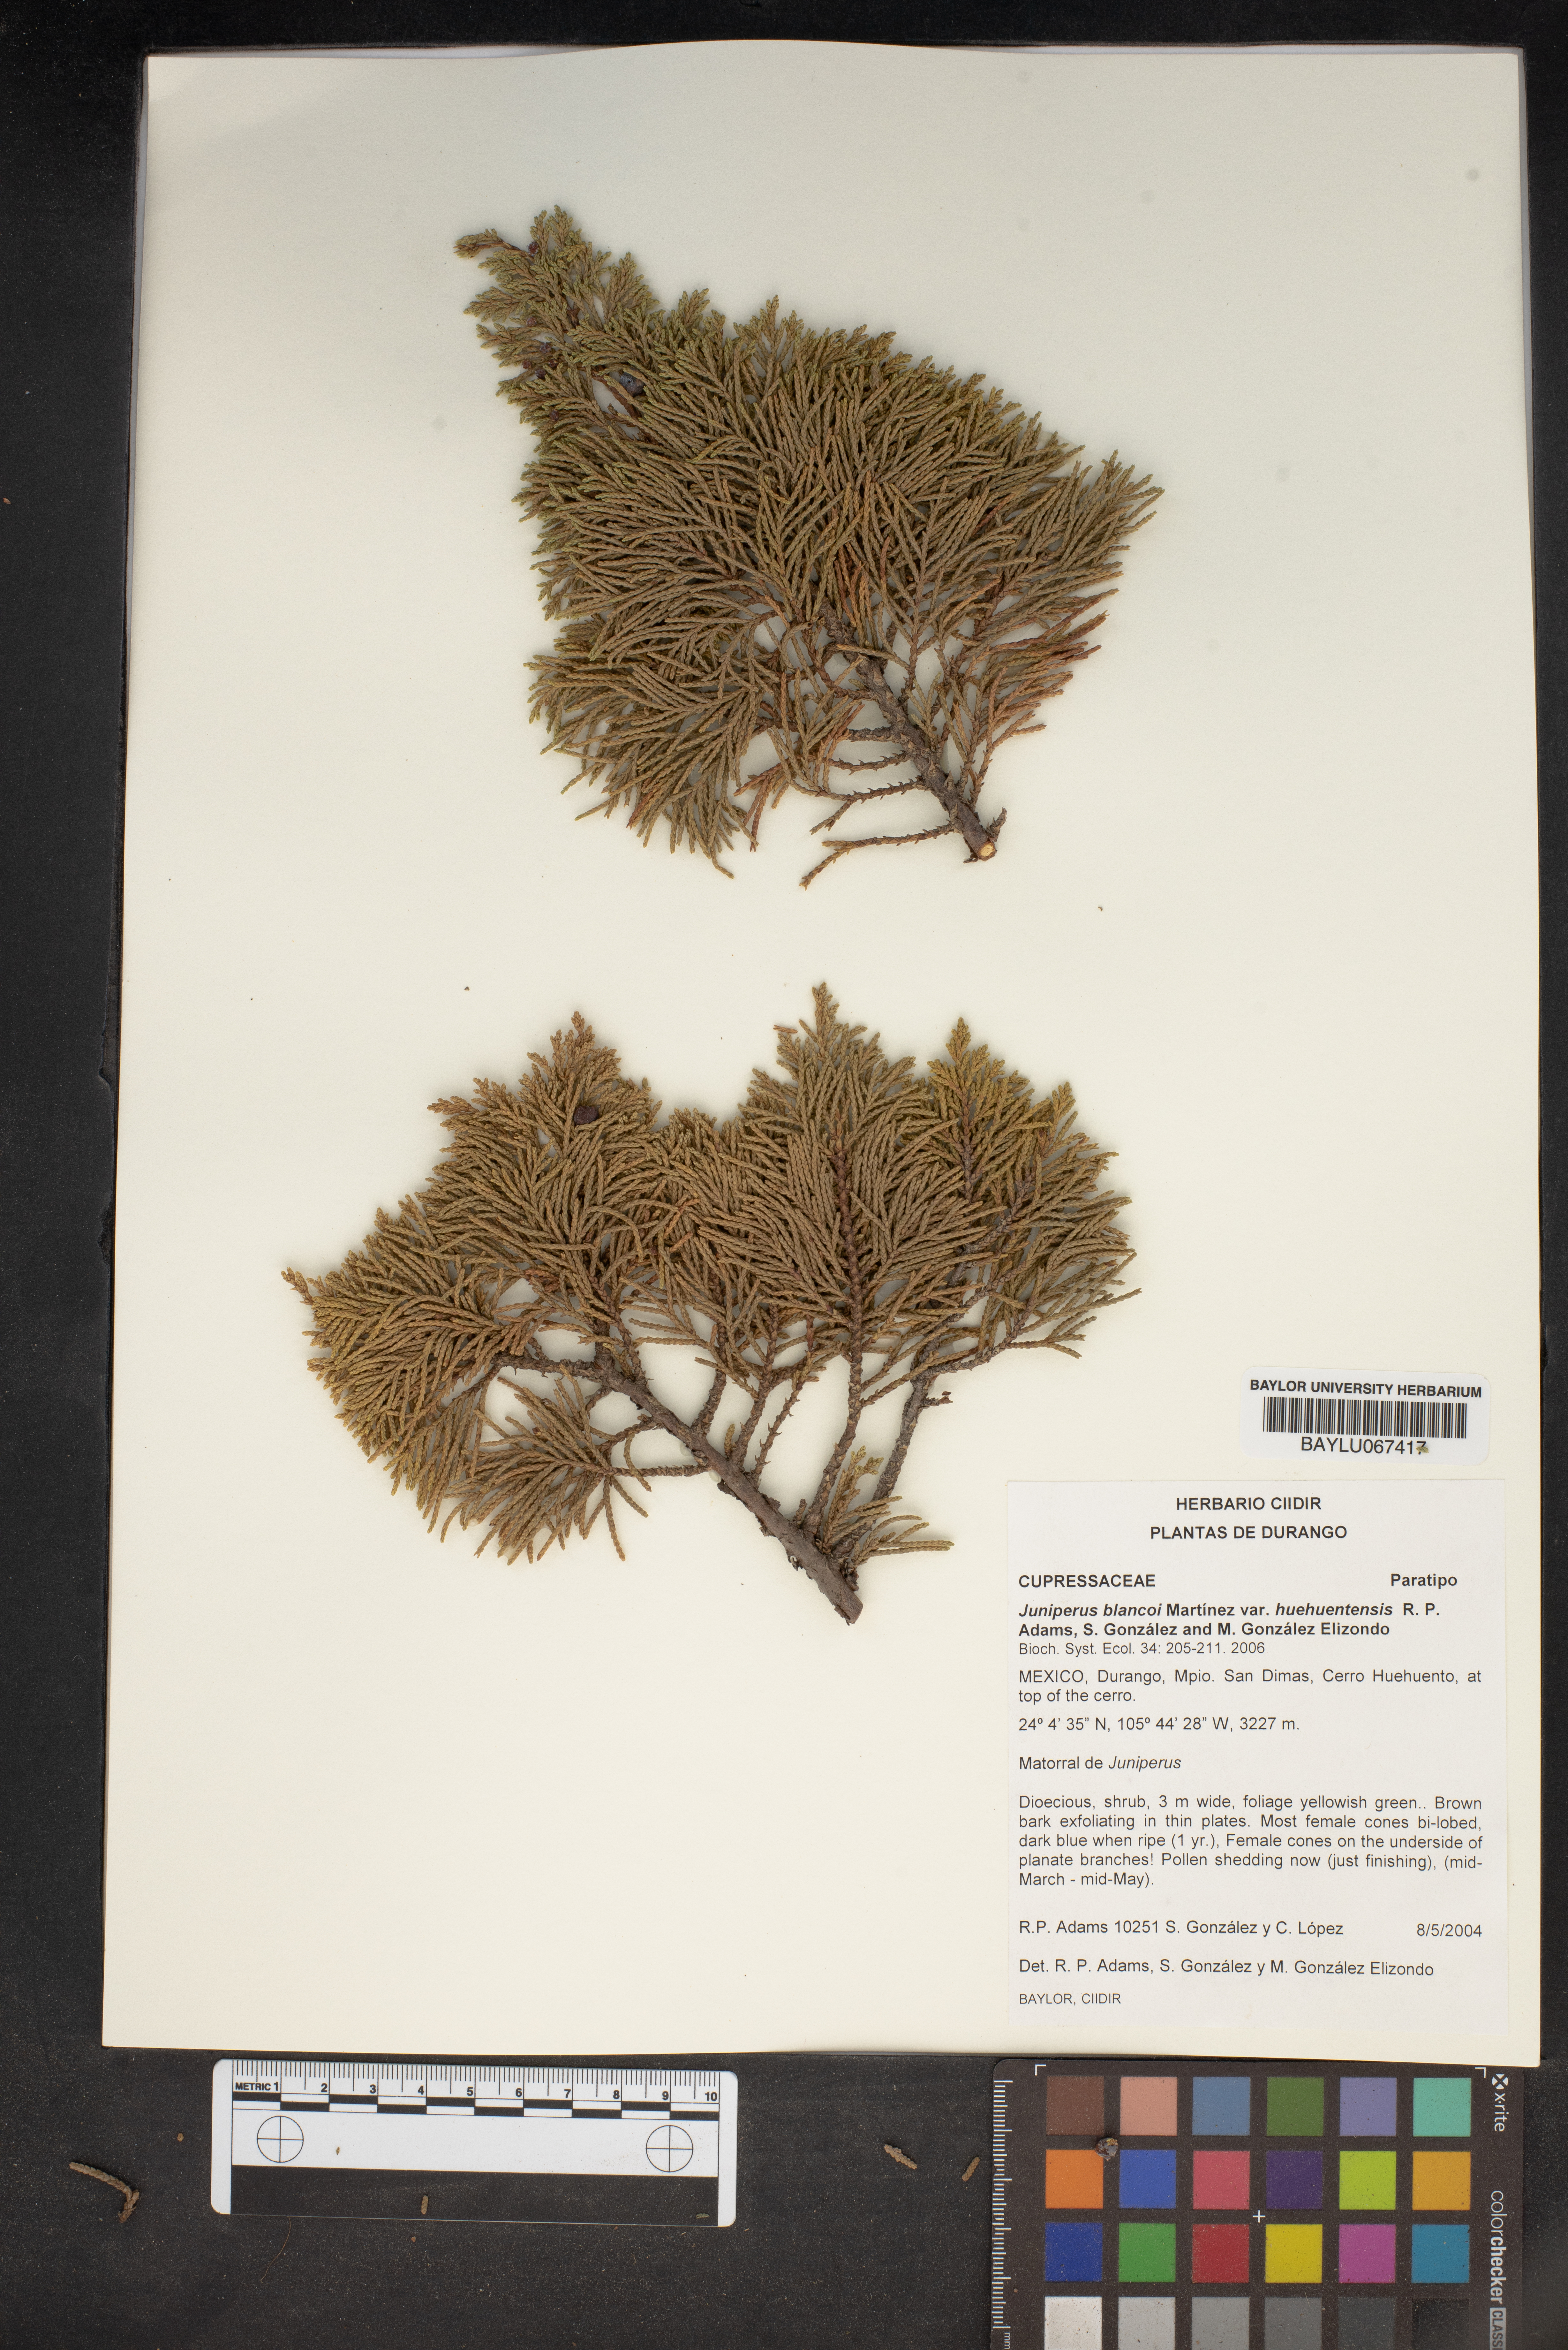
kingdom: Plantae
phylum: Tracheophyta
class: Pinopsida
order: Pinales
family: Cupressaceae
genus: Juniperus
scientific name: Juniperus blancoi
